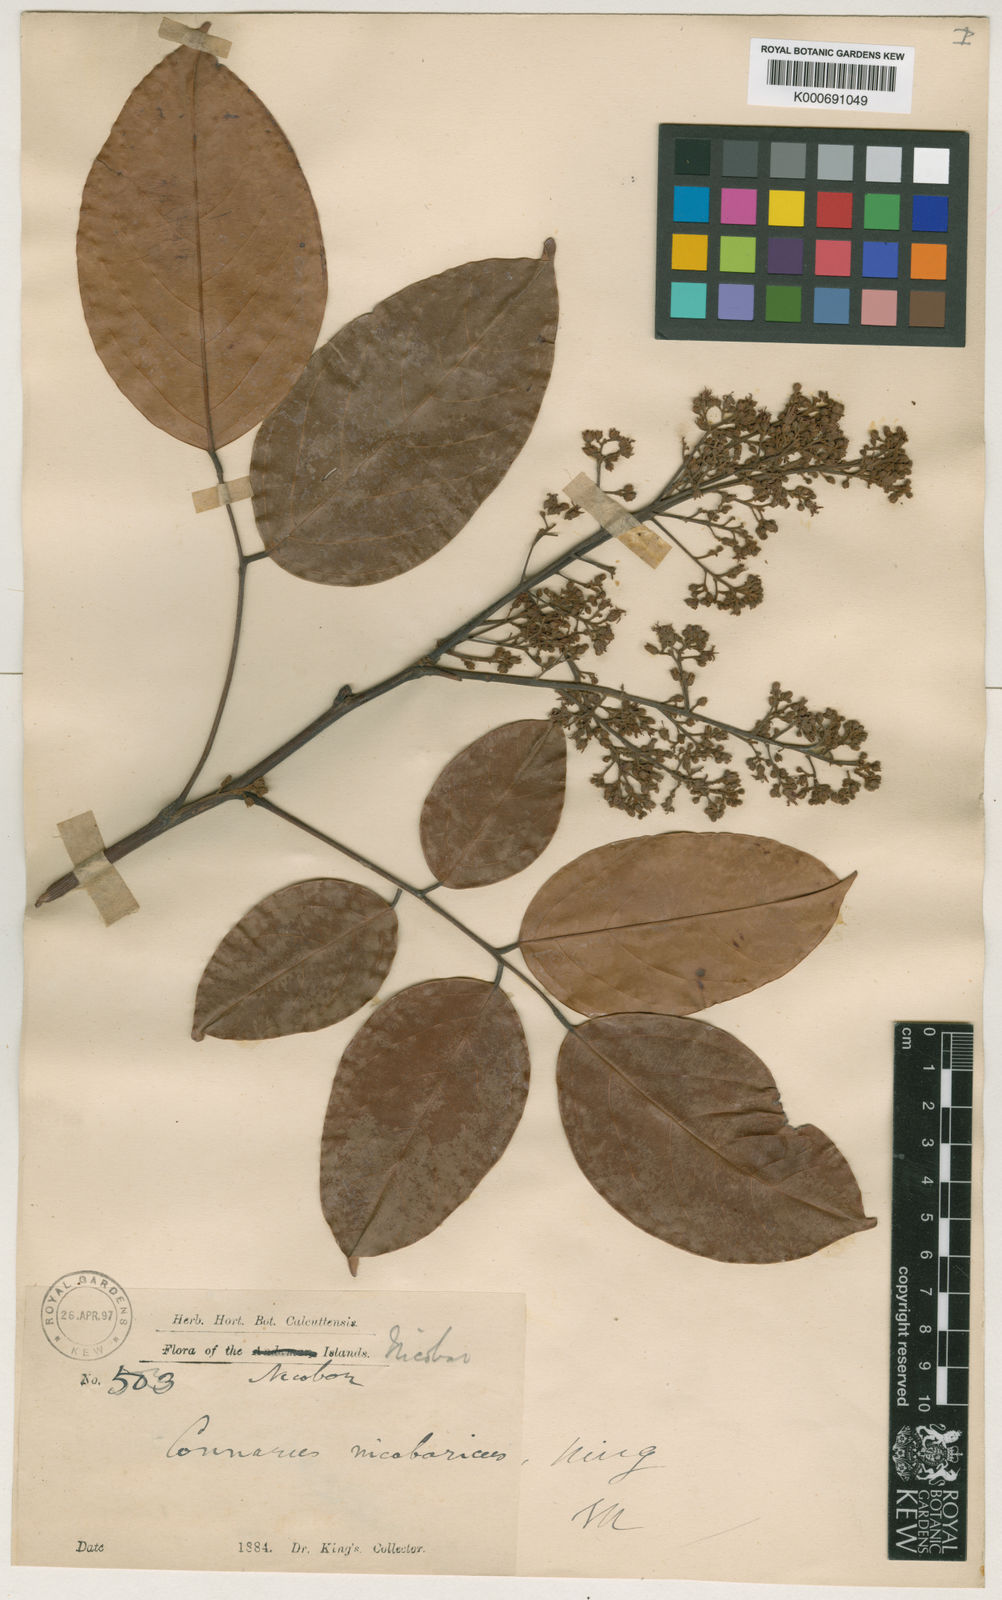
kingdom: Plantae
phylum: Tracheophyta
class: Magnoliopsida
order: Oxalidales
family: Connaraceae
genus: Connarus
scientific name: Connarus nicobaricus
